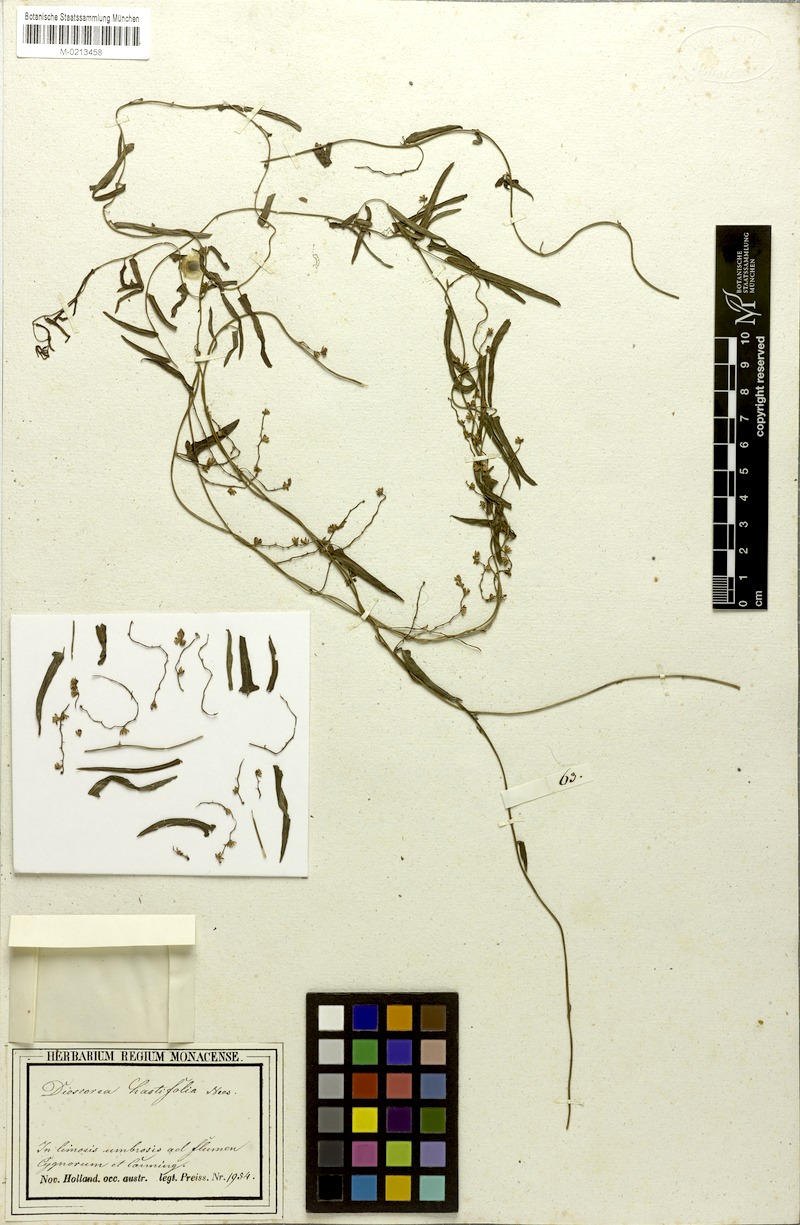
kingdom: Plantae
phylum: Tracheophyta
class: Liliopsida
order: Dioscoreales
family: Dioscoreaceae
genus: Dioscorea
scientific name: Dioscorea hastifolia
